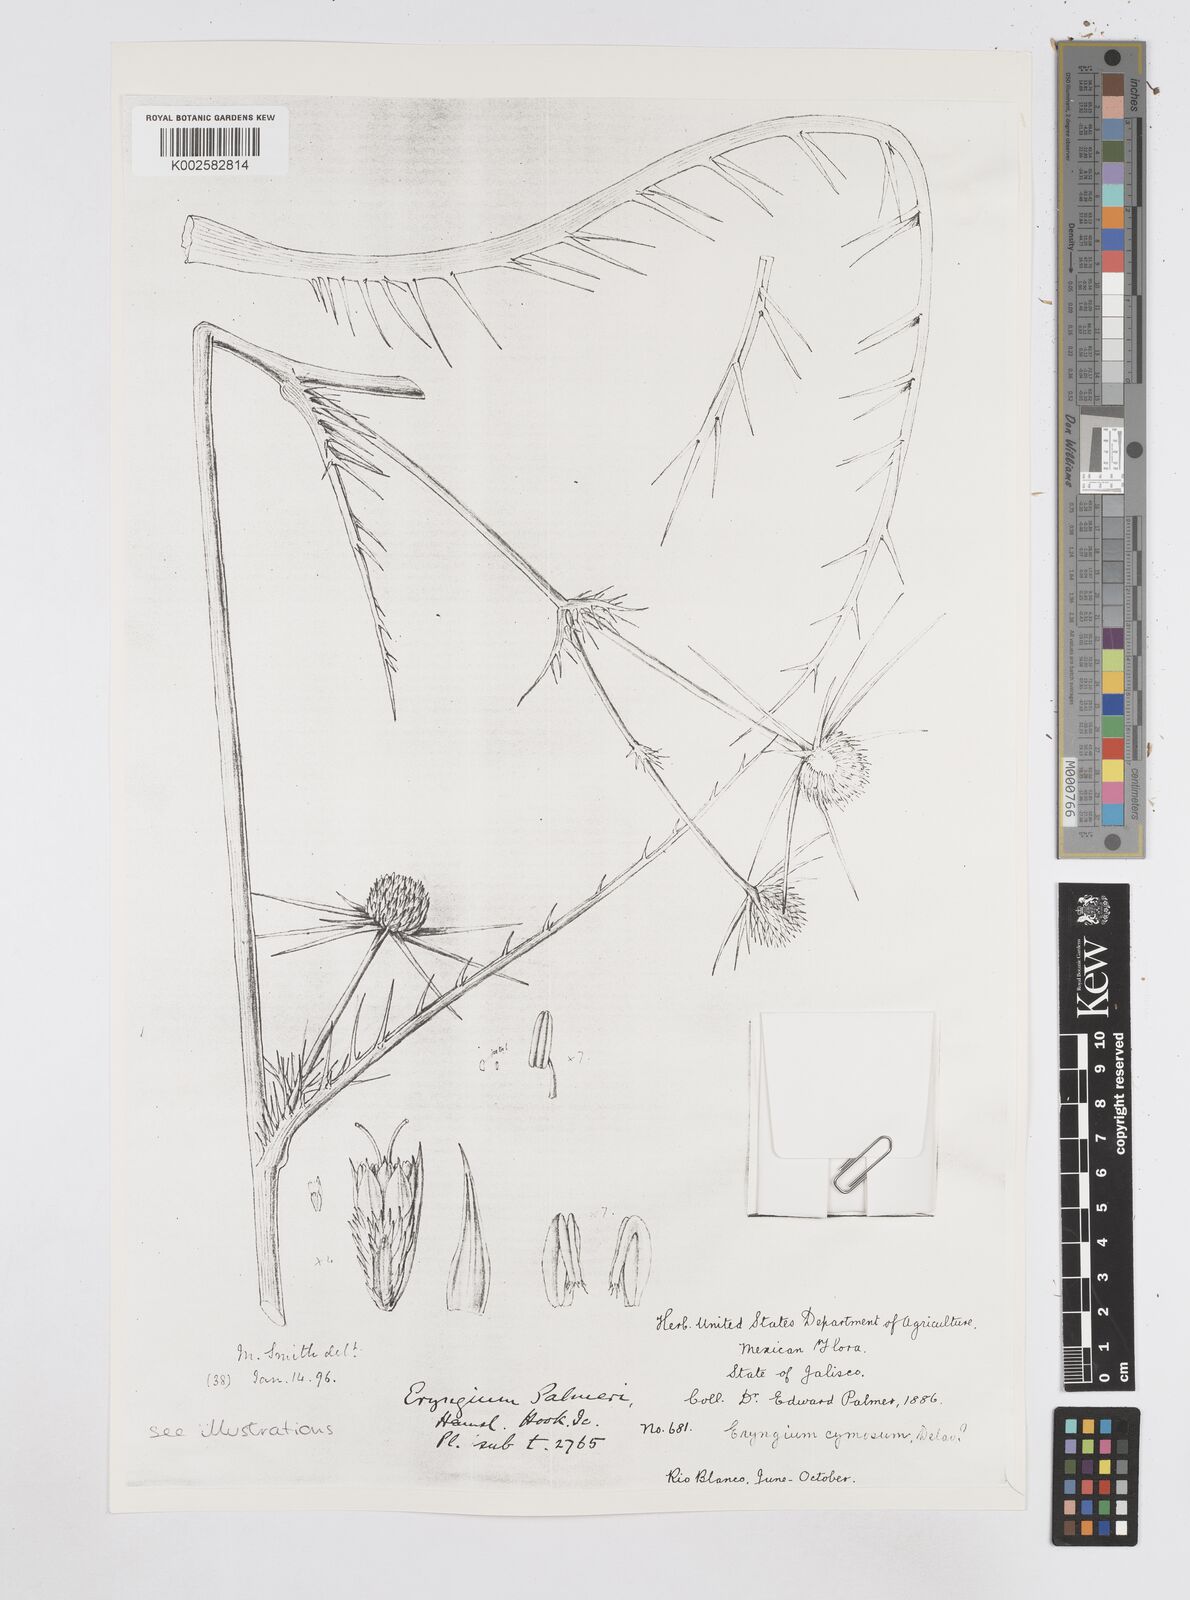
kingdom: Plantae
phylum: Tracheophyta
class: Magnoliopsida
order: Apiales
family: Apiaceae
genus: Eryngium
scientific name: Eryngium cymosum
